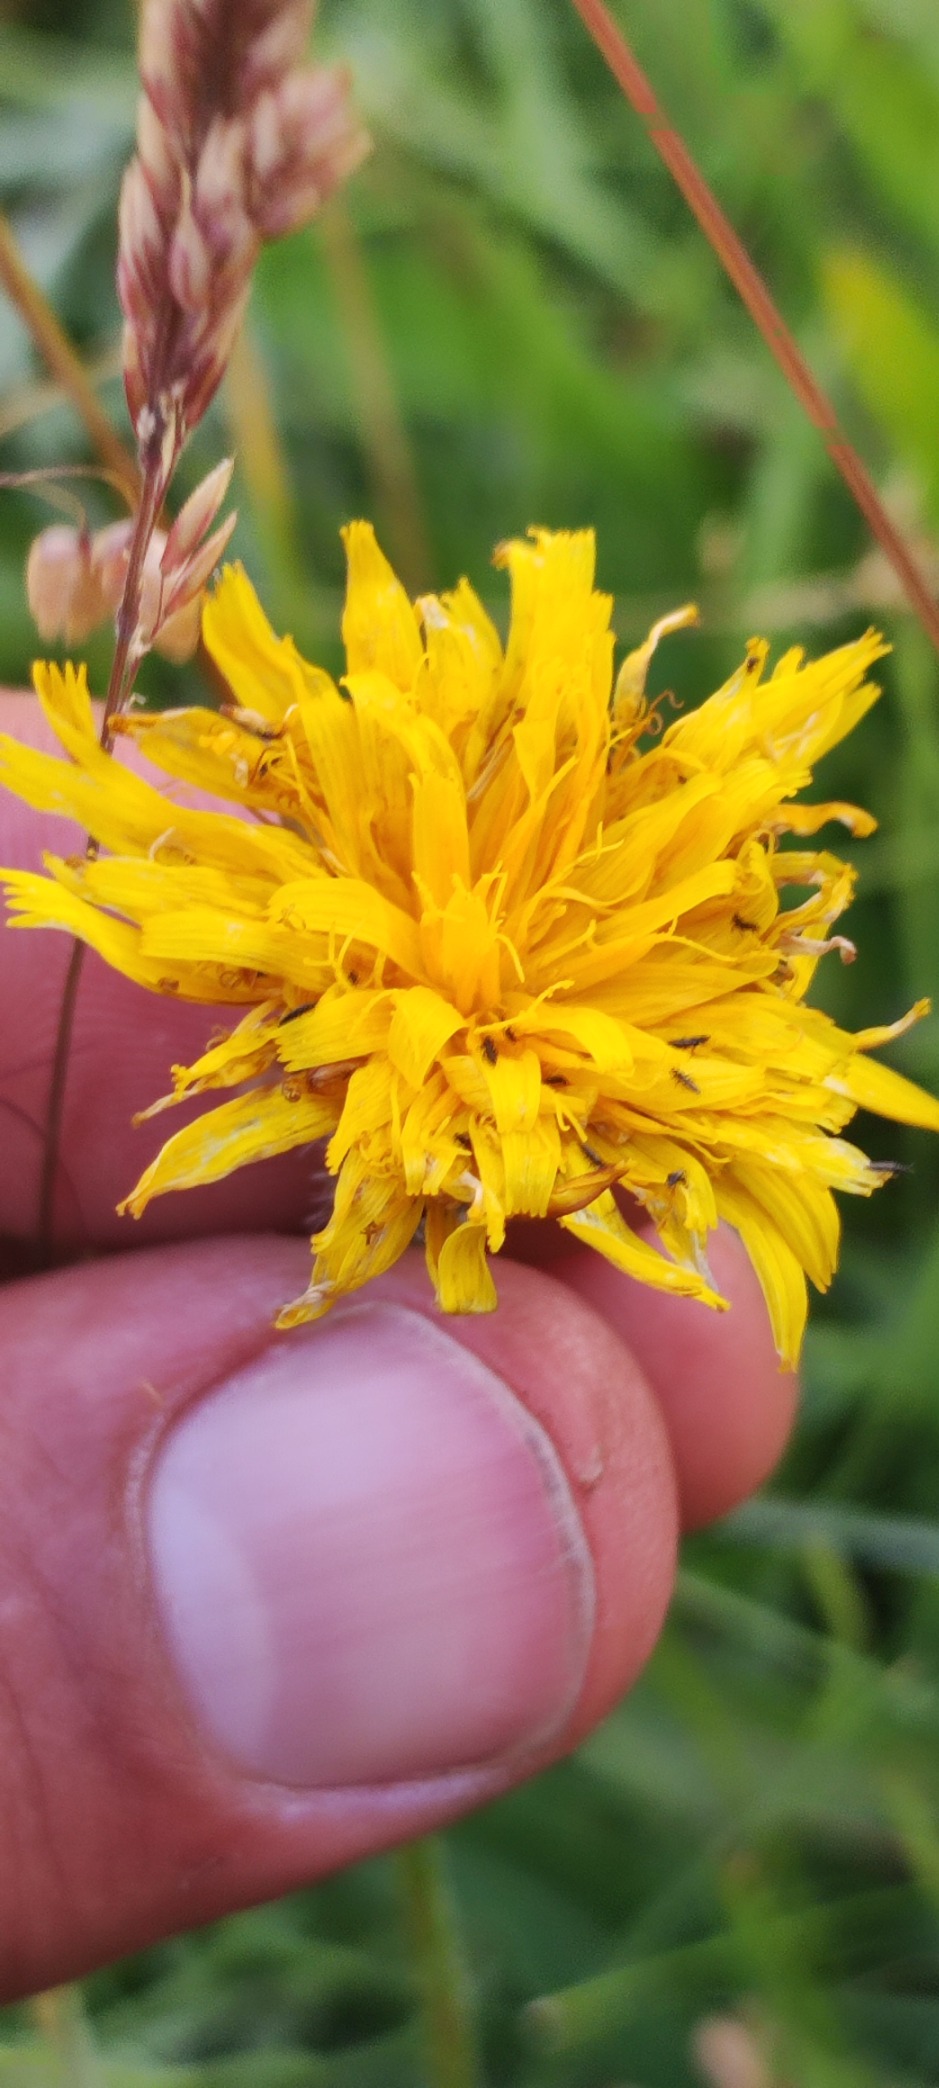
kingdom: Plantae
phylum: Tracheophyta
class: Magnoliopsida
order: Asterales
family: Asteraceae
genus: Leontodon
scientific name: Leontodon hispidus
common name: Stivhåret borst
